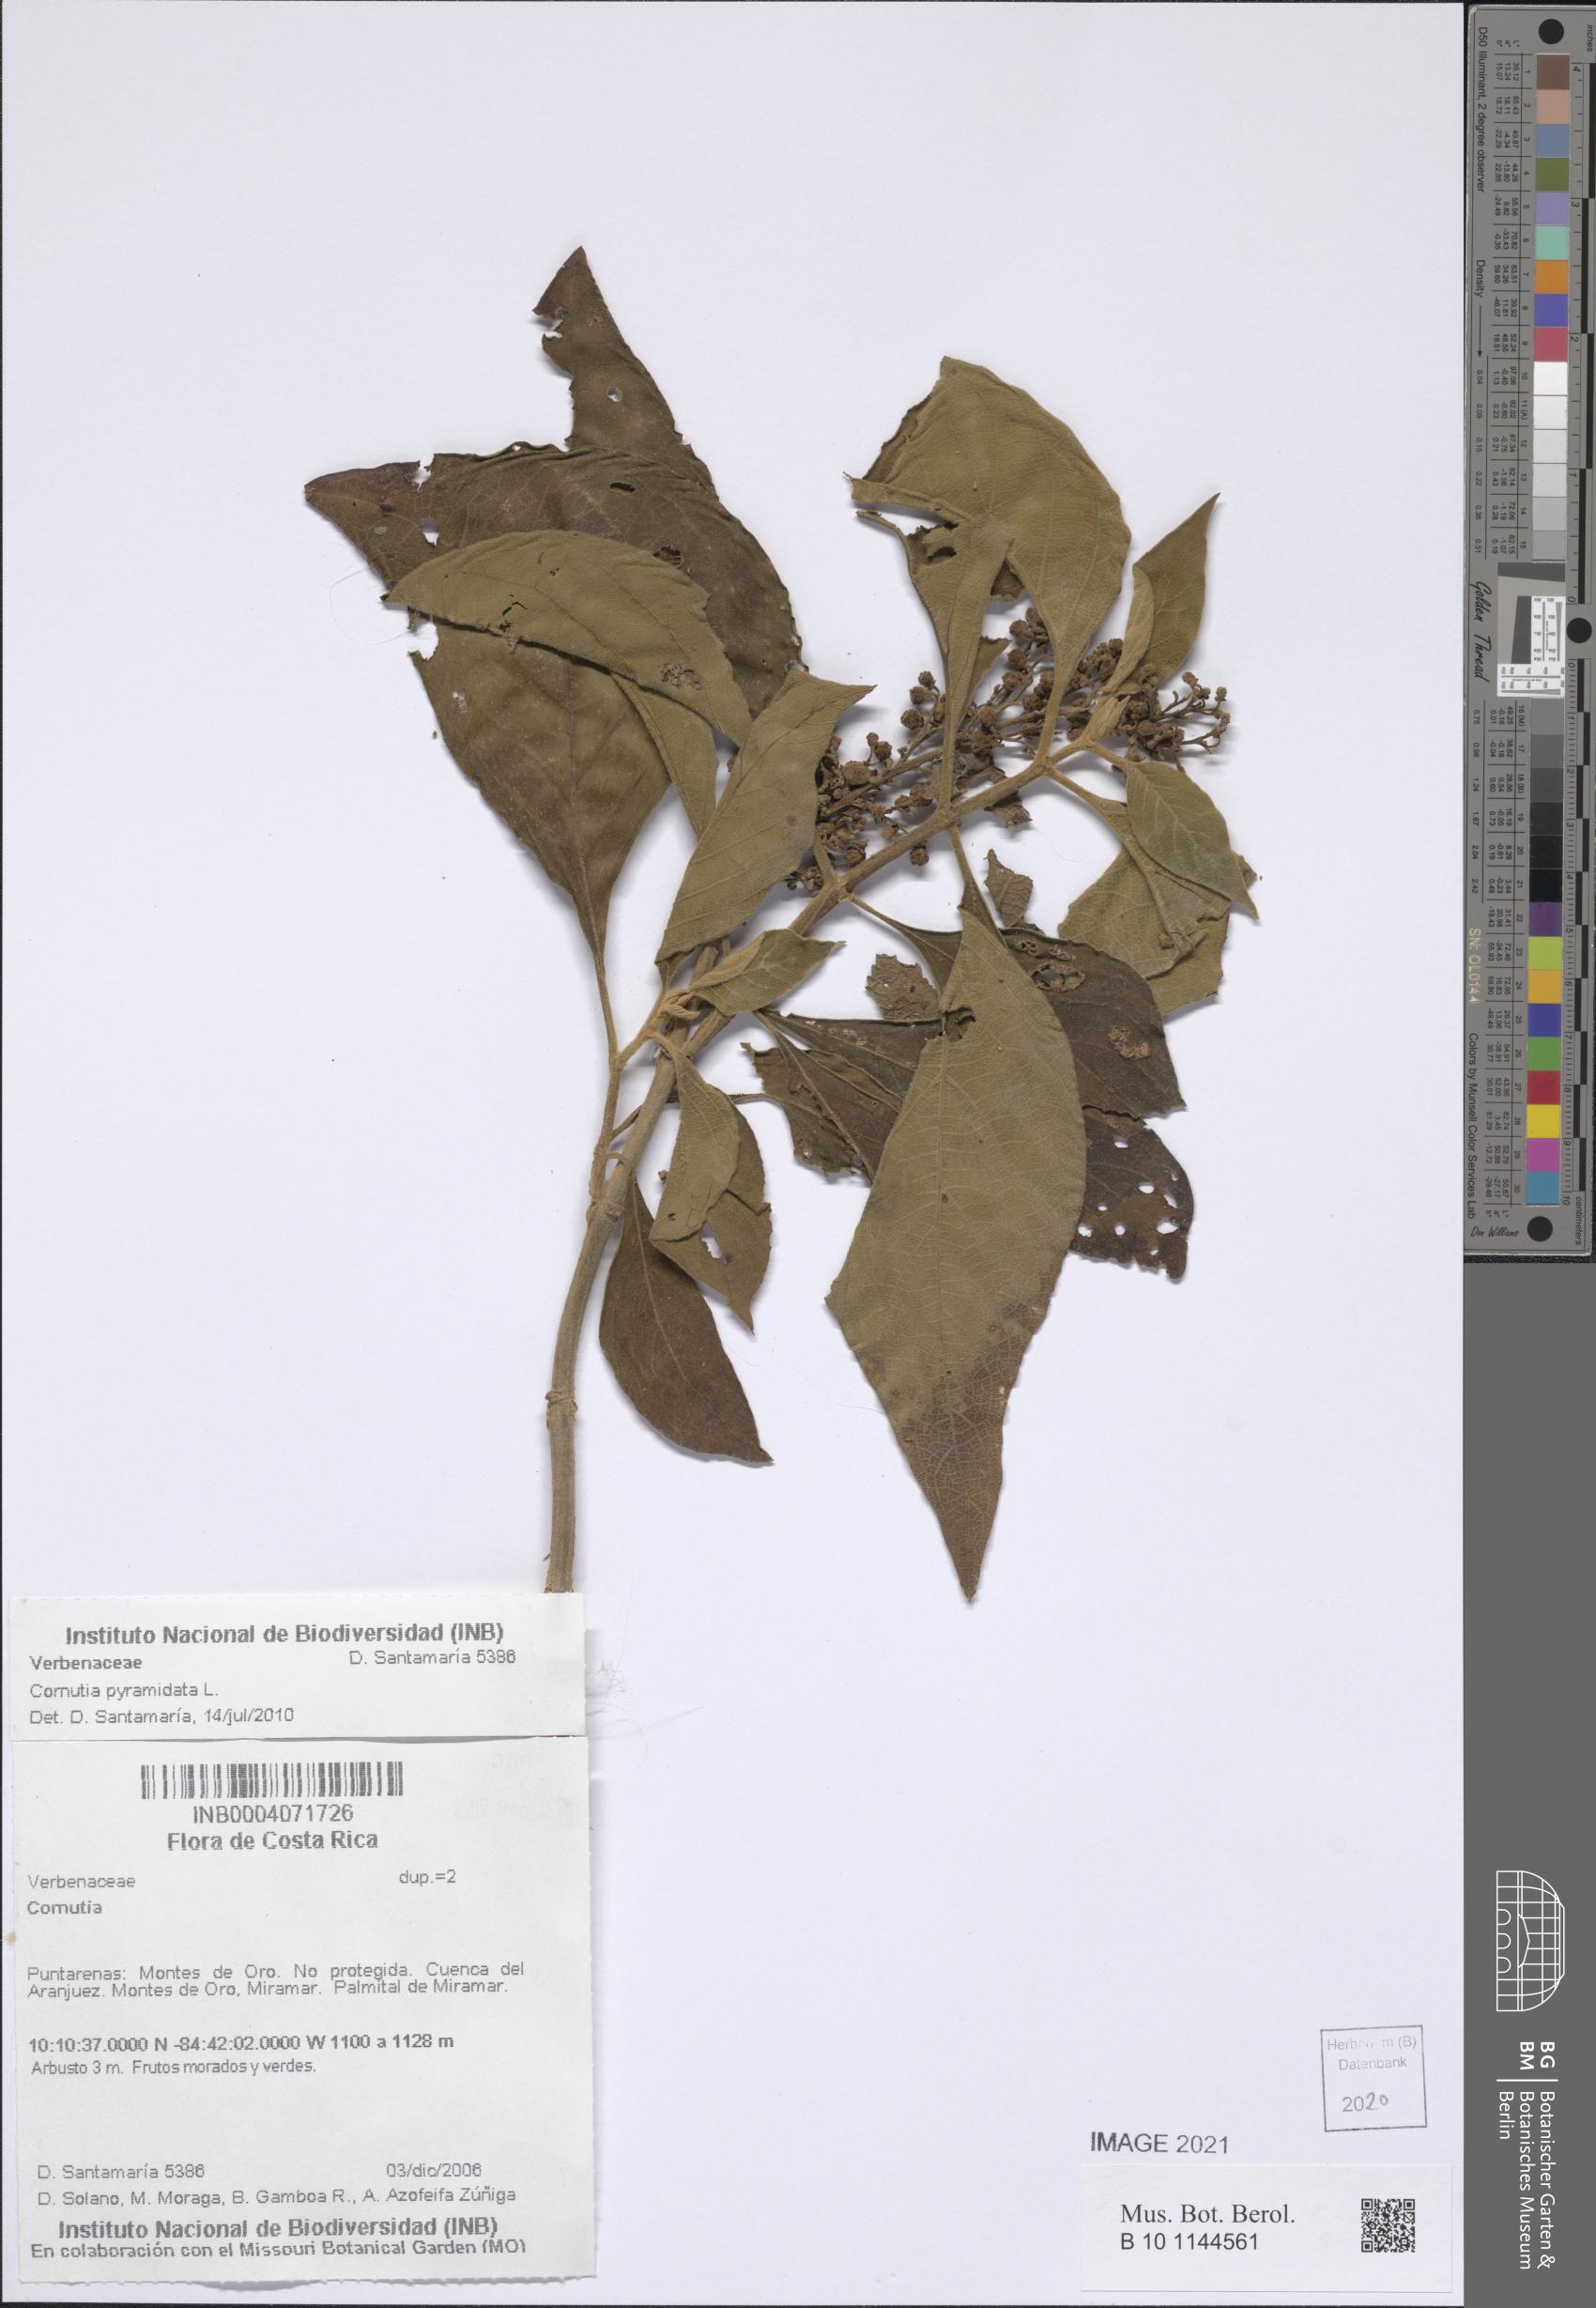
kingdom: Plantae
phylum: Tracheophyta
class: Magnoliopsida
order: Lamiales
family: Lamiaceae
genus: Cornutia
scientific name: Cornutia pyramidata
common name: Azulejo
